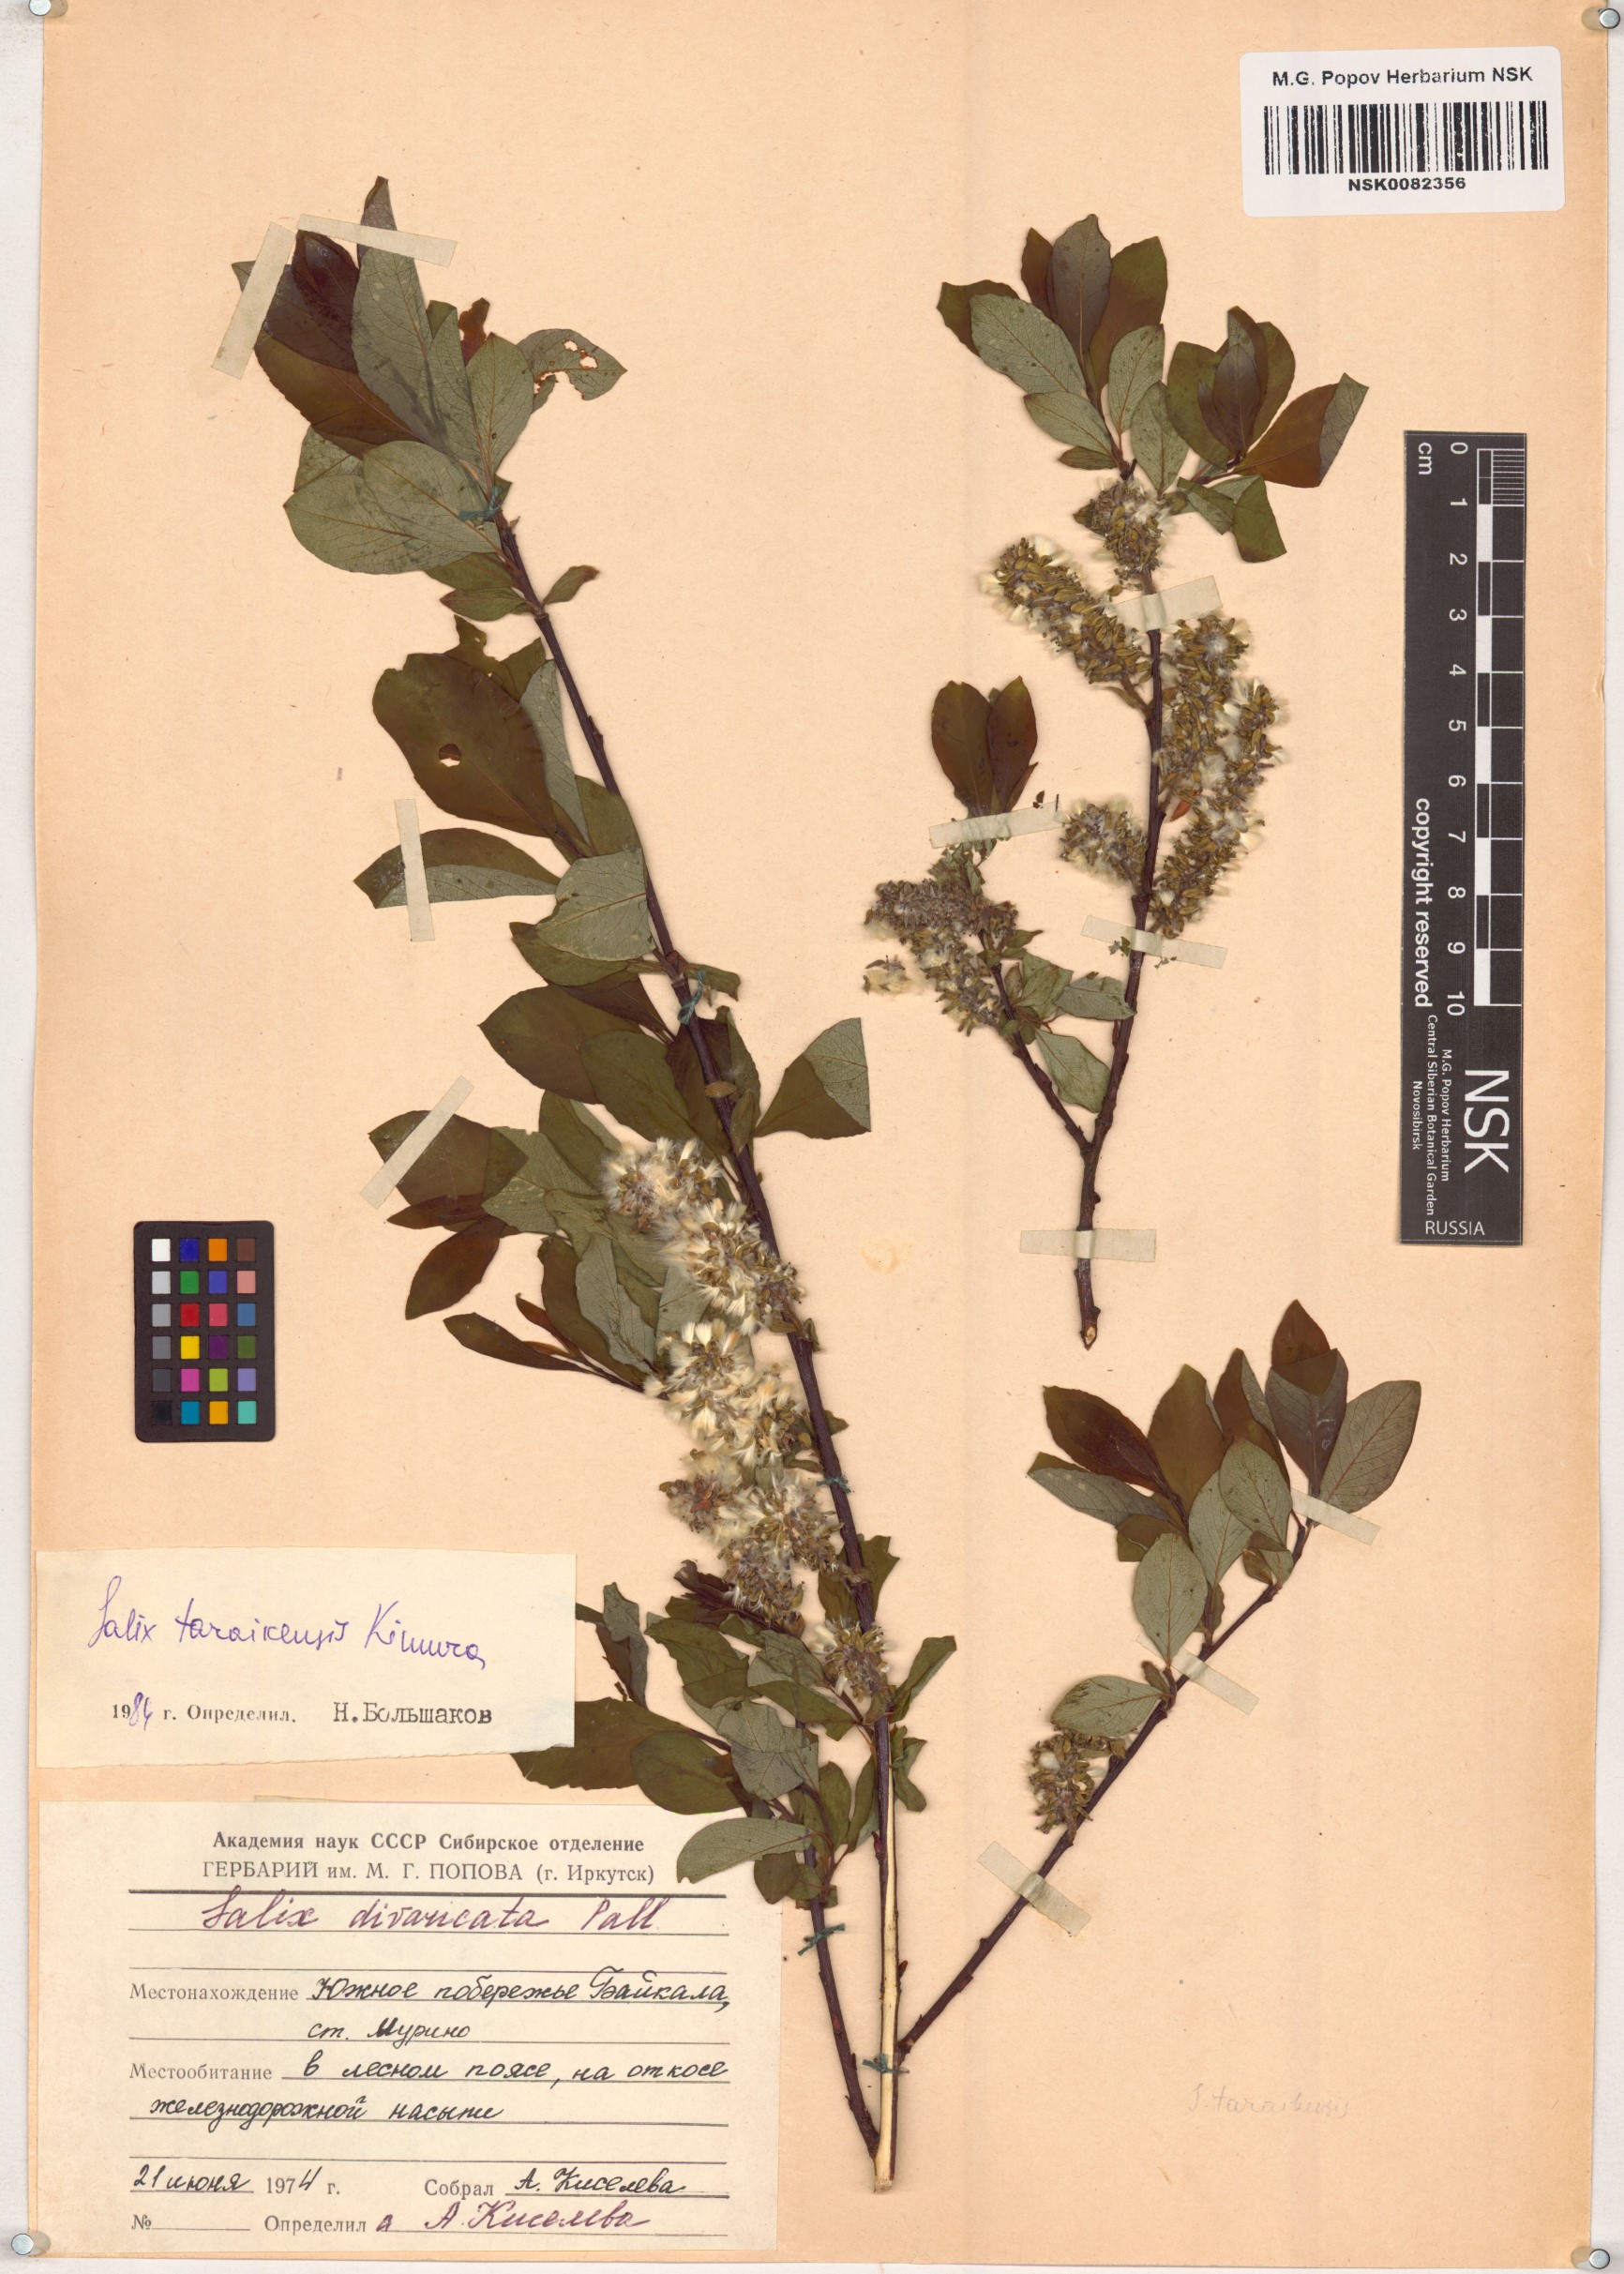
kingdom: Plantae
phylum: Tracheophyta
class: Magnoliopsida
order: Malpighiales
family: Salicaceae
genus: Salix
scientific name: Salix taraikensis
